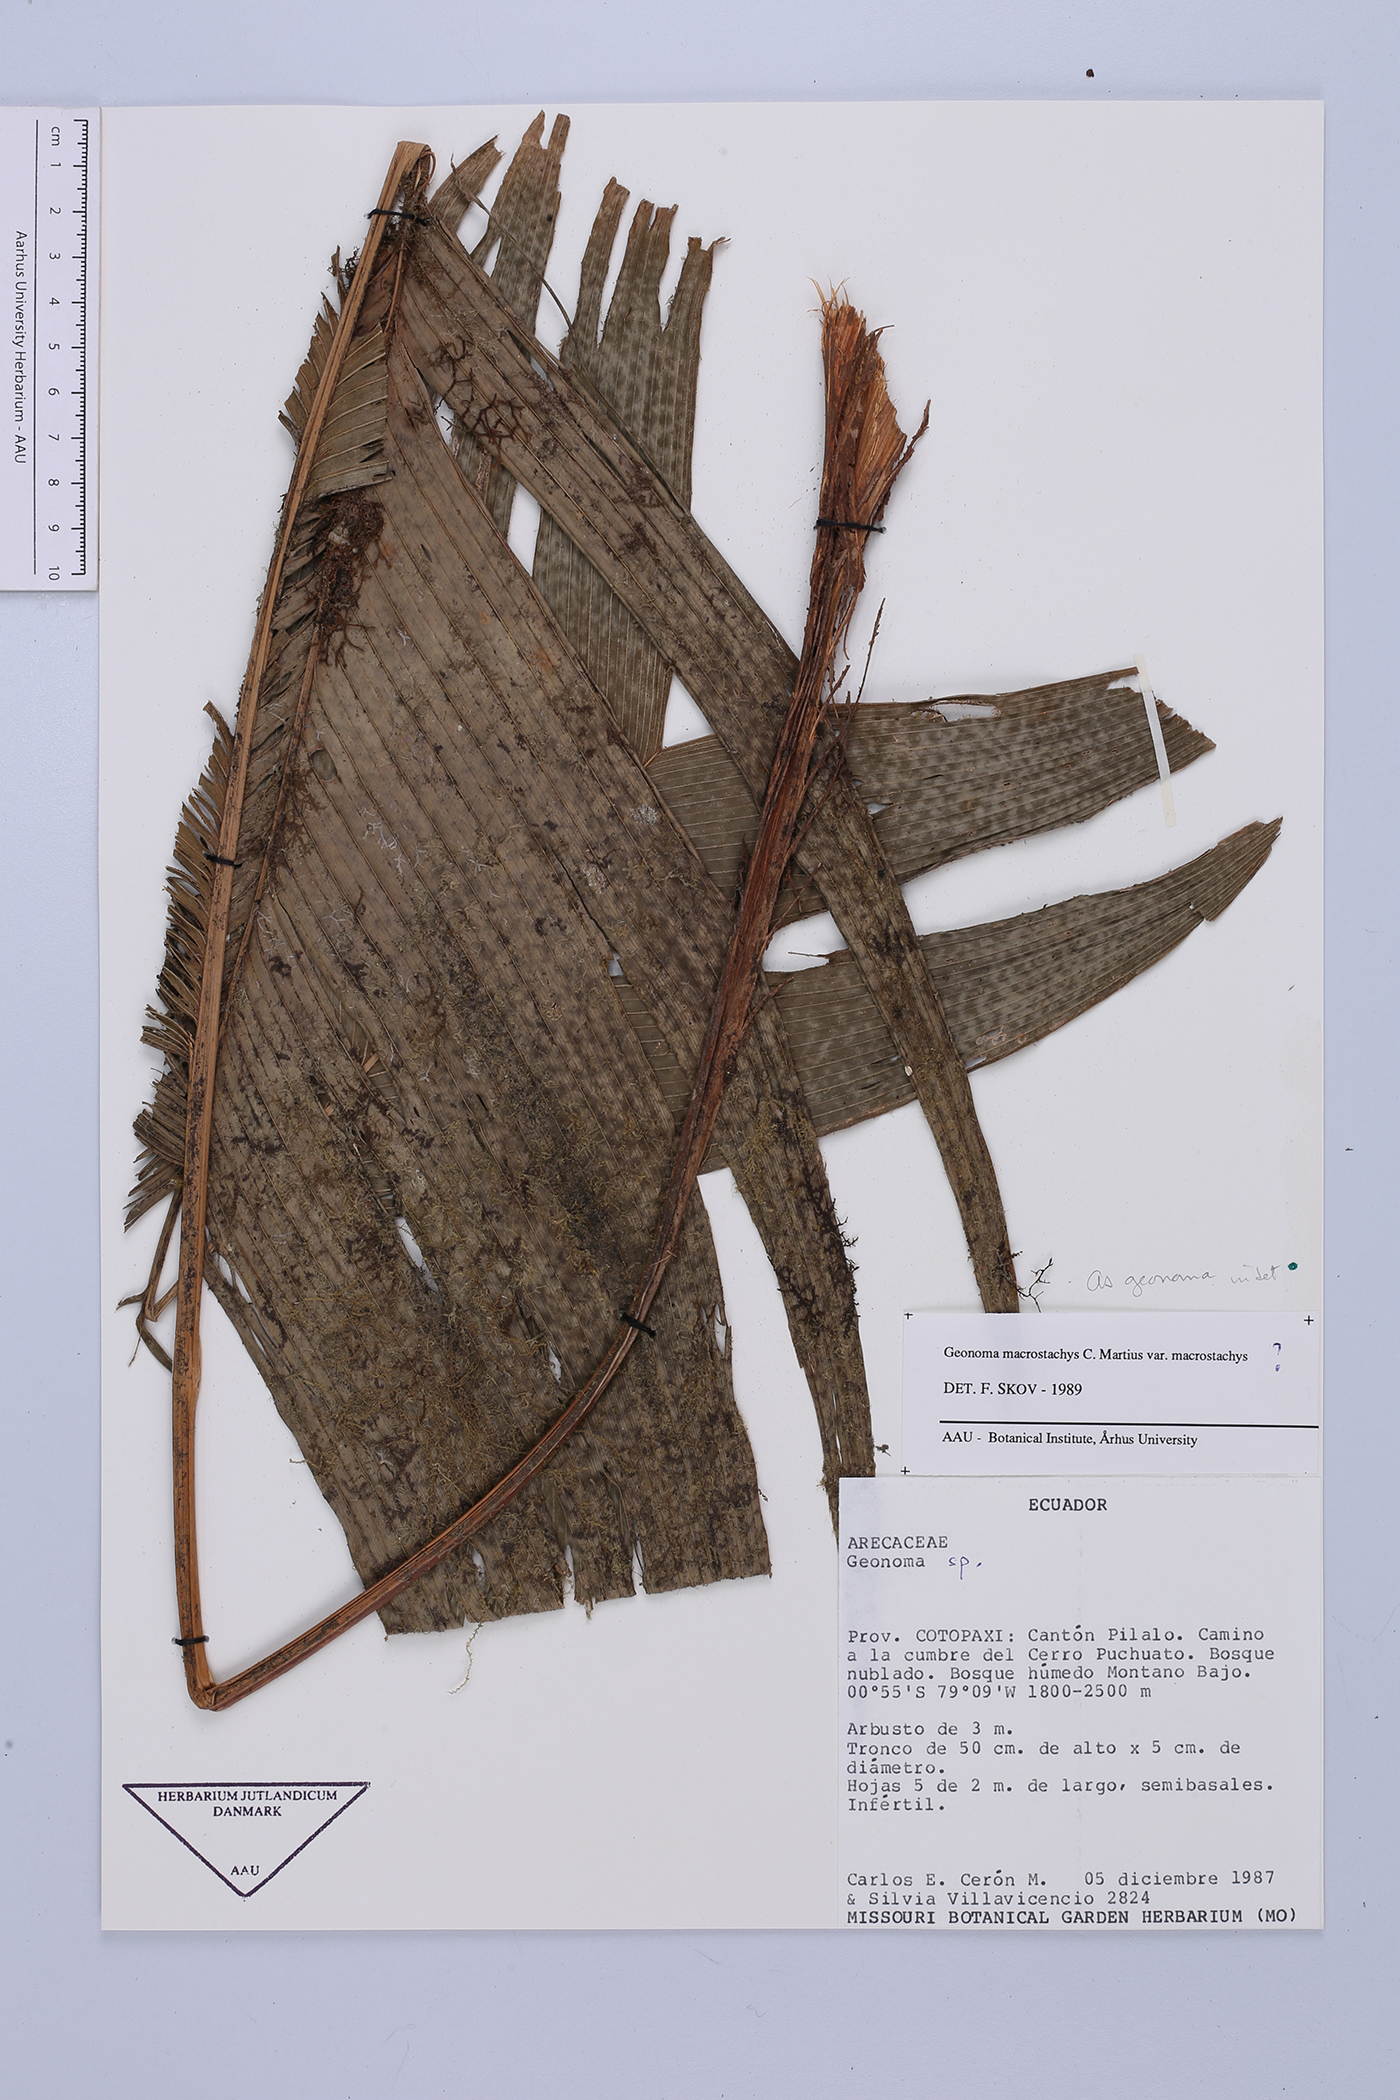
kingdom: Plantae
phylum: Tracheophyta
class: Liliopsida
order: Arecales
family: Arecaceae
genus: Geonoma
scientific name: Geonoma
